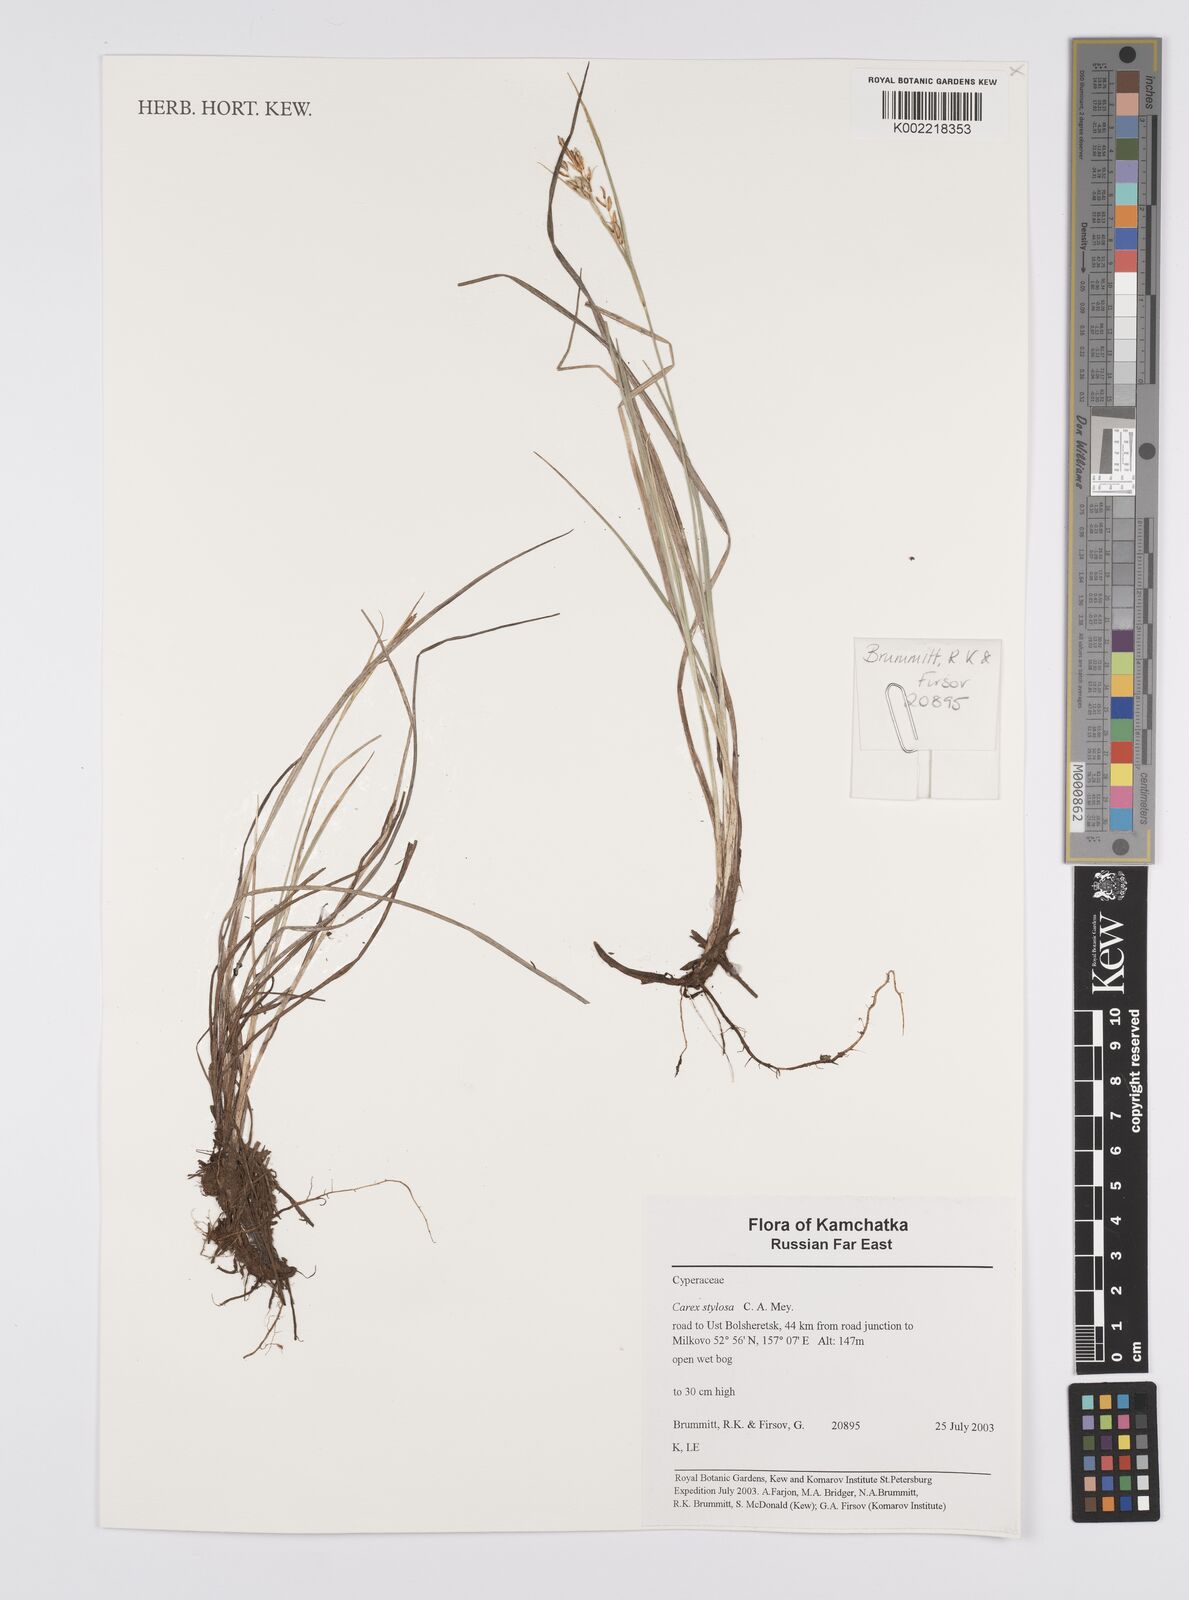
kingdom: Plantae
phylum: Tracheophyta
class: Liliopsida
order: Poales
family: Cyperaceae
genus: Carex
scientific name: Carex stylosa
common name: Long-styled sedge
